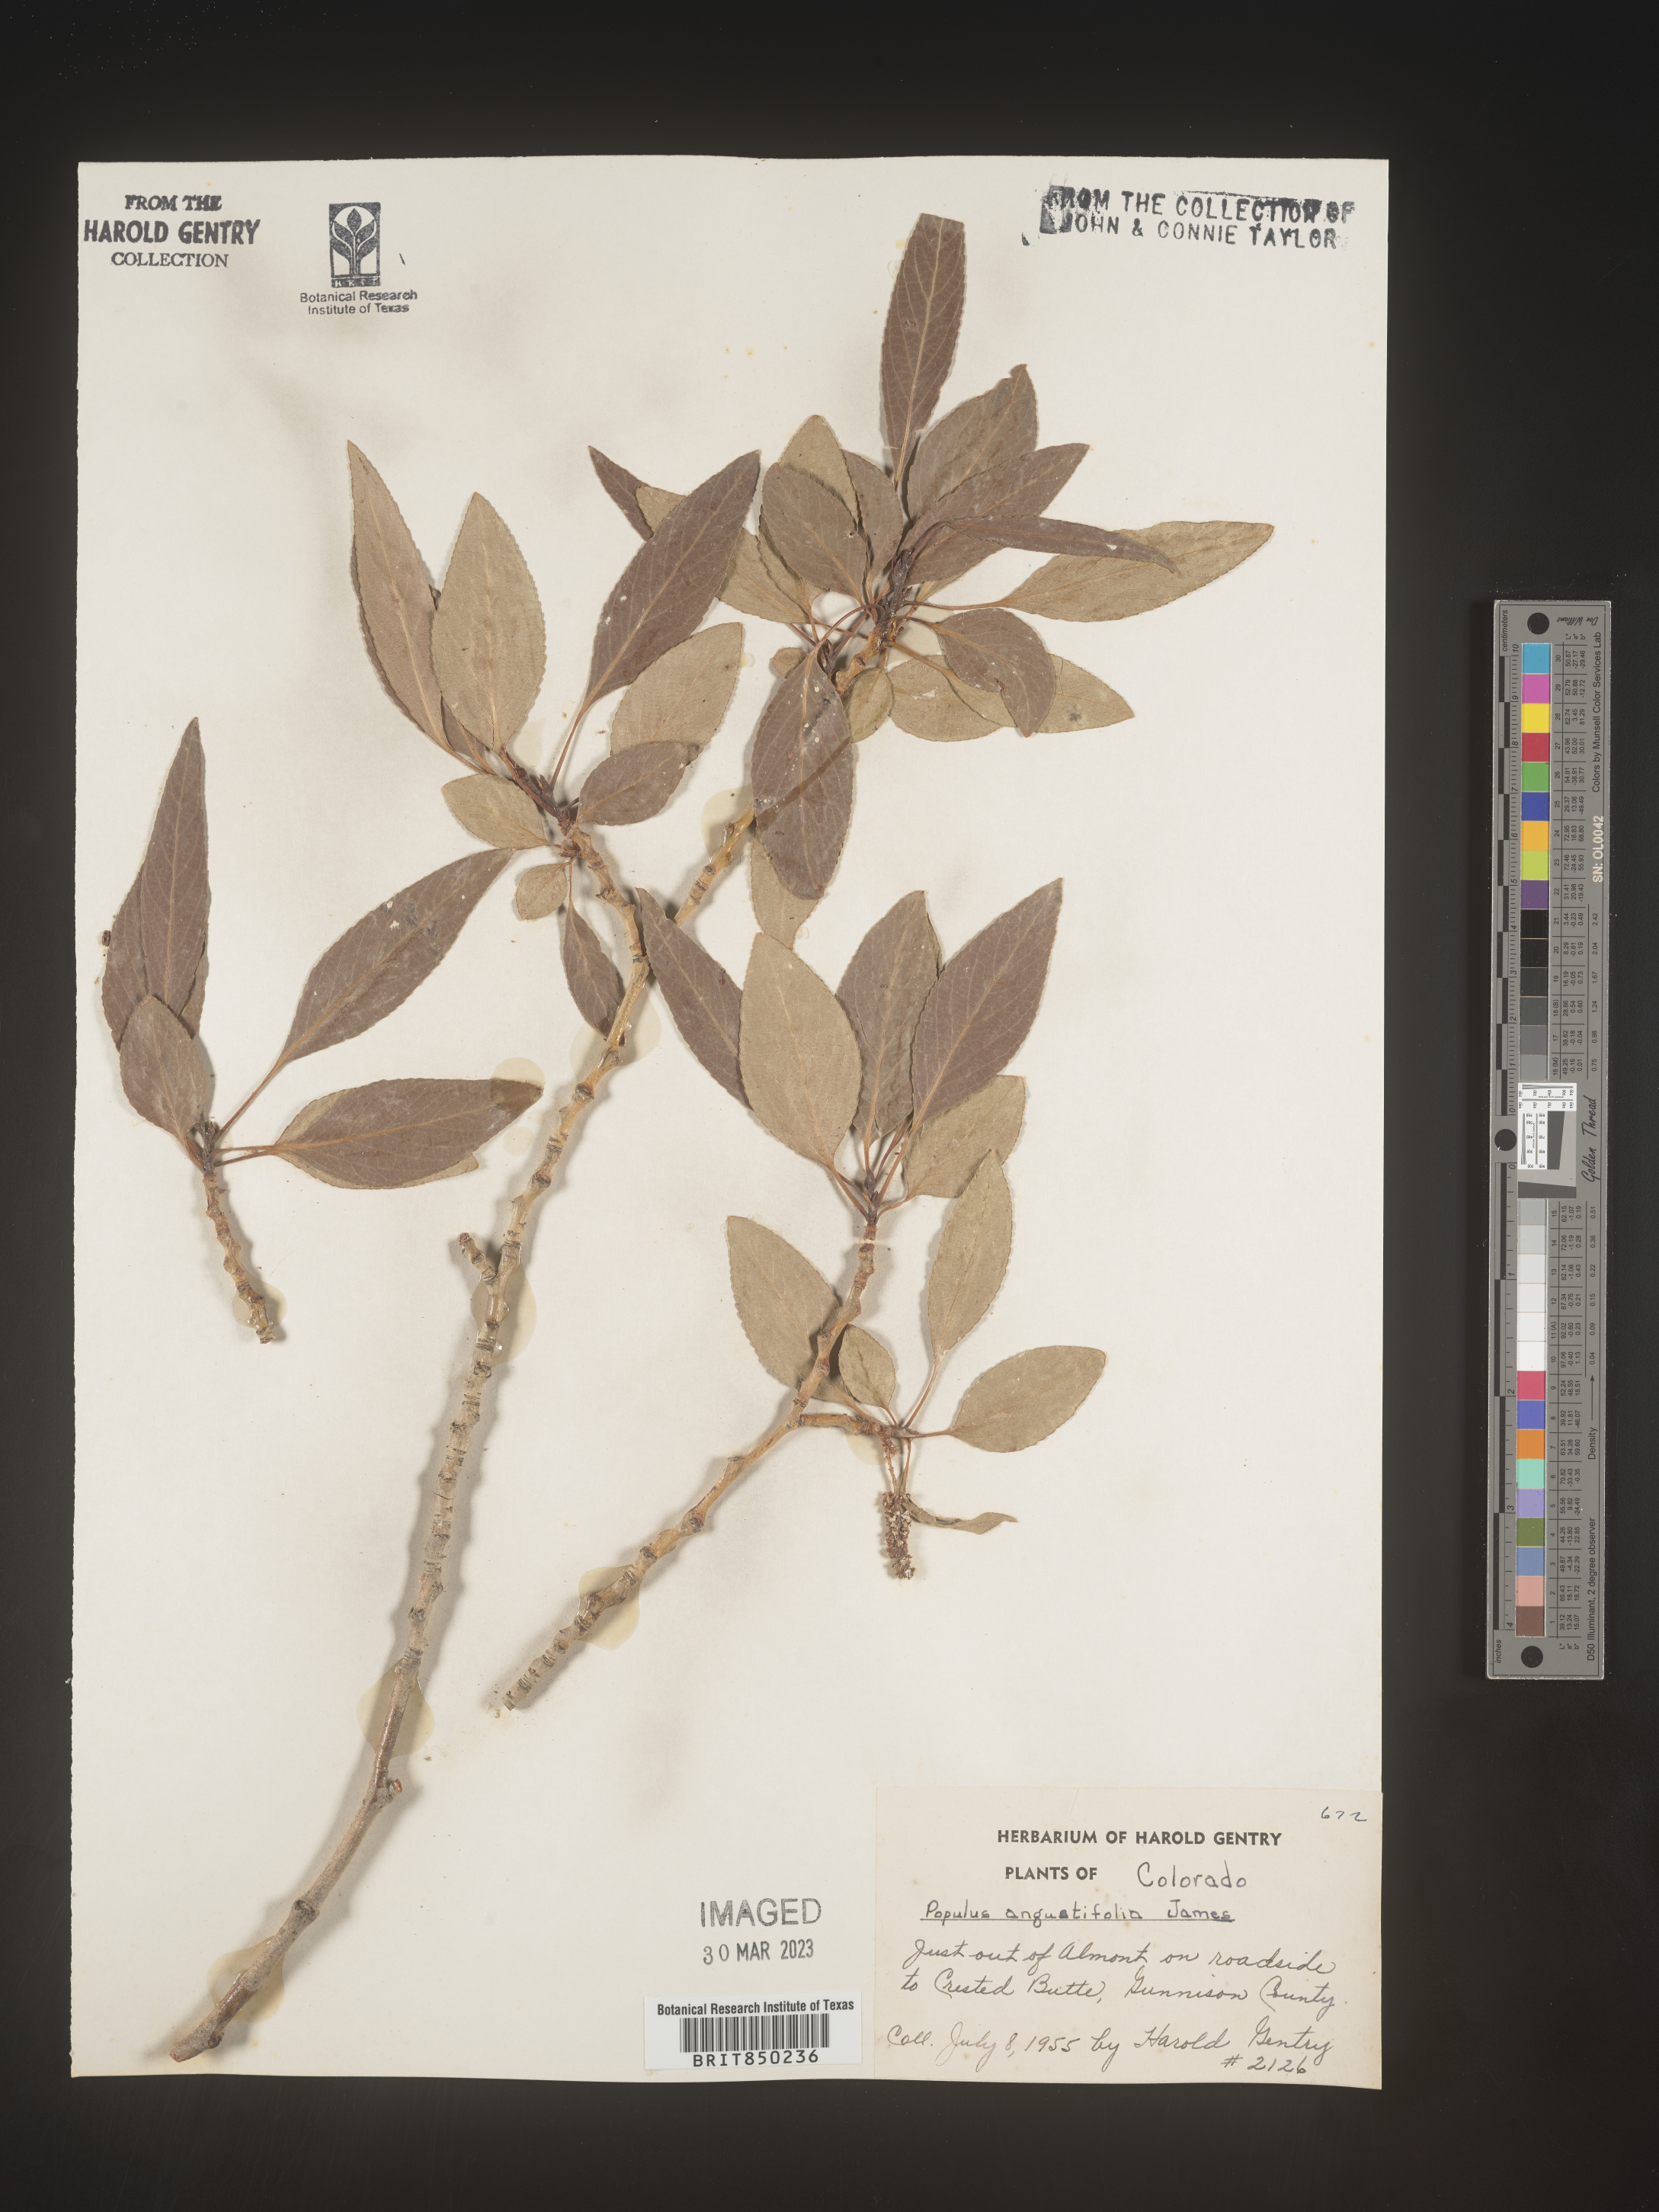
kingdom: Plantae
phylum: Tracheophyta
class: Magnoliopsida
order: Malpighiales
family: Salicaceae
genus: Populus
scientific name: Populus angustifolia
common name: Willow cottonwood
